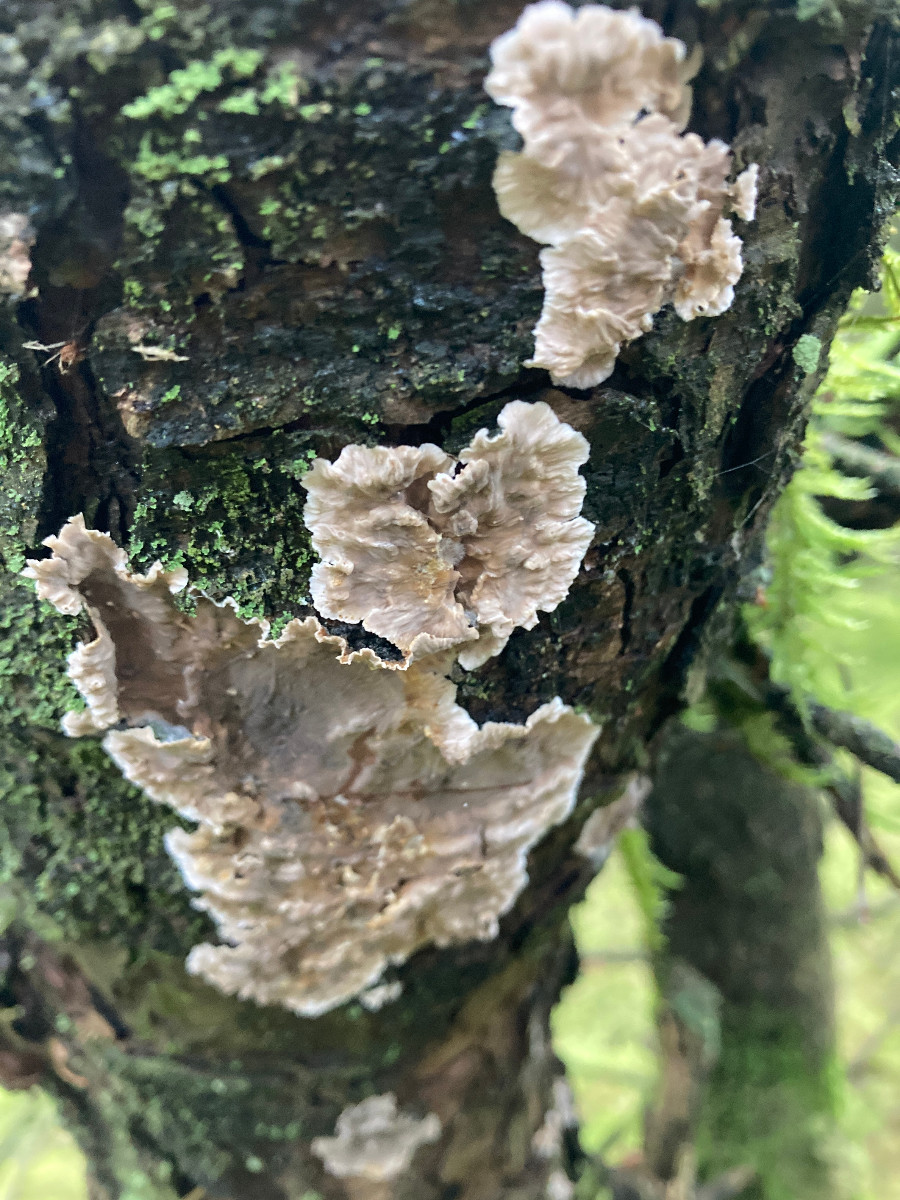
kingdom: Fungi
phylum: Basidiomycota
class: Agaricomycetes
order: Russulales
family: Stereaceae
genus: Stereum
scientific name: Stereum sanguinolentum
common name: blødende lædersvamp
